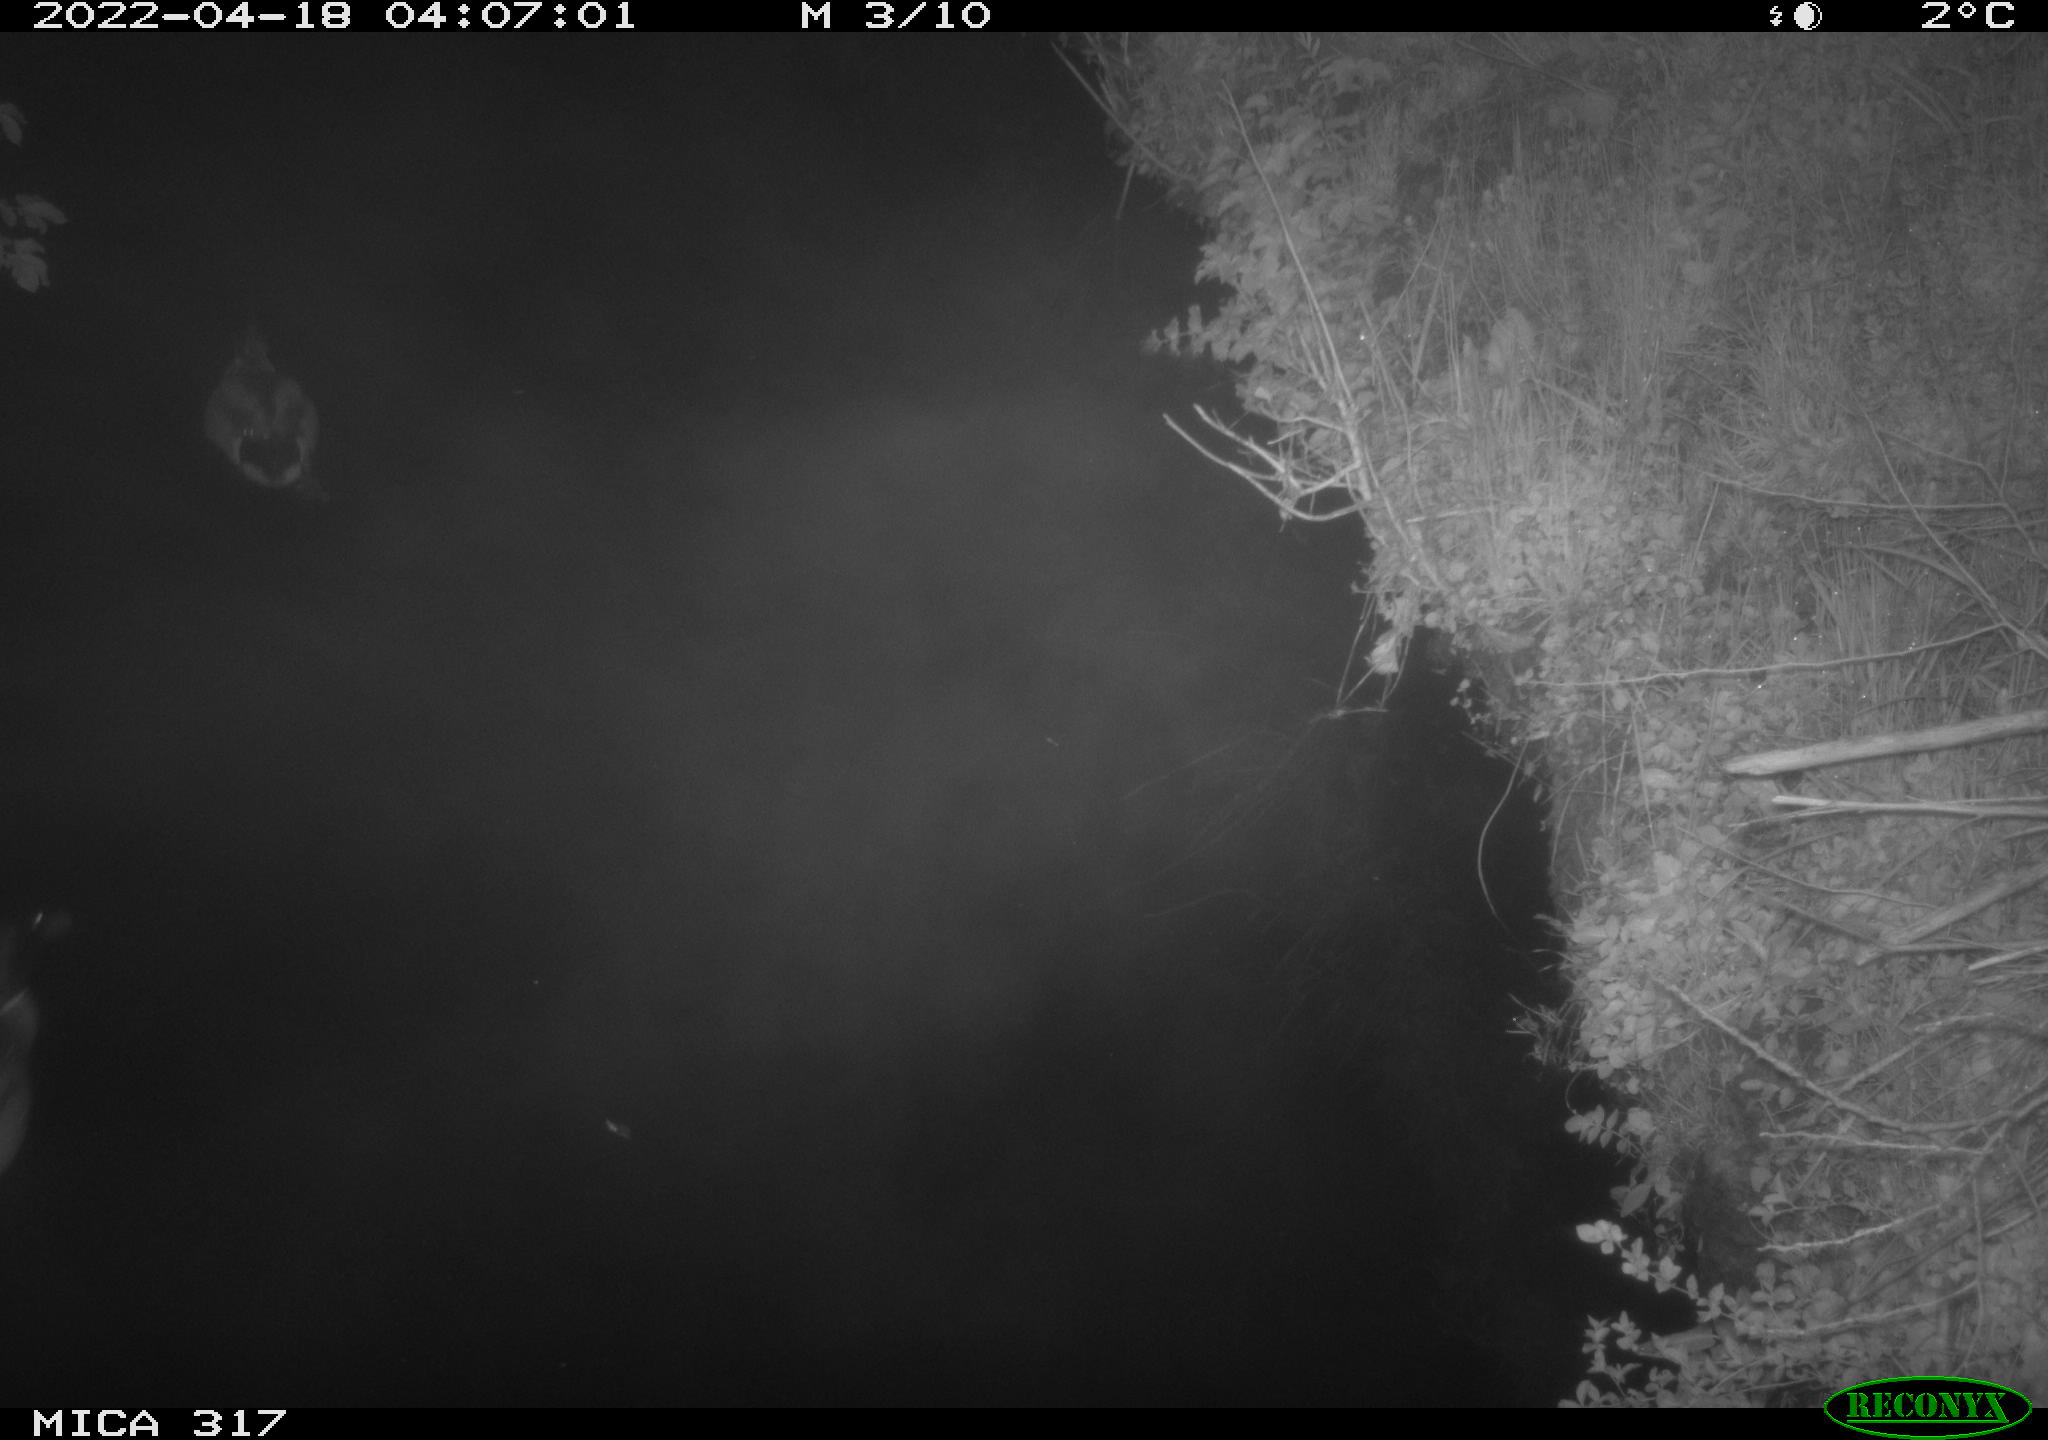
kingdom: Animalia
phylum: Chordata
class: Aves
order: Anseriformes
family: Anatidae
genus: Anas
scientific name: Anas platyrhynchos
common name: Mallard
